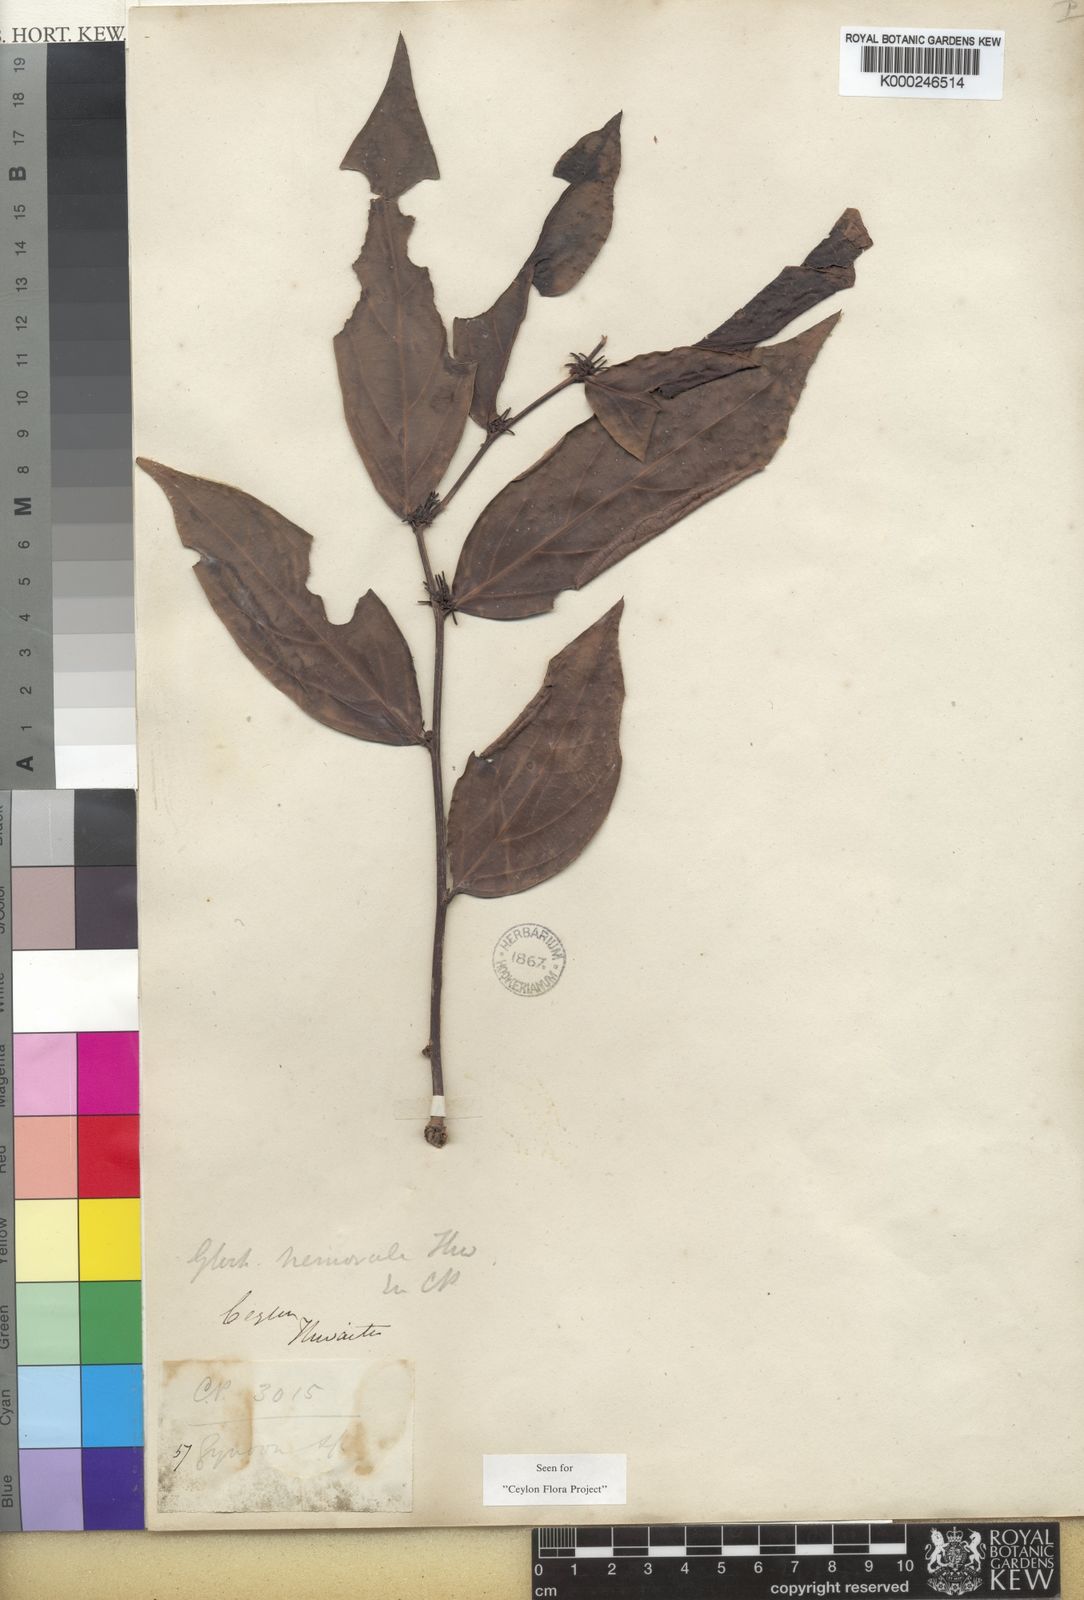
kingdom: Plantae
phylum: Tracheophyta
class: Magnoliopsida
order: Malpighiales
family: Phyllanthaceae
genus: Glochidion
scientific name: Glochidion nemorale
